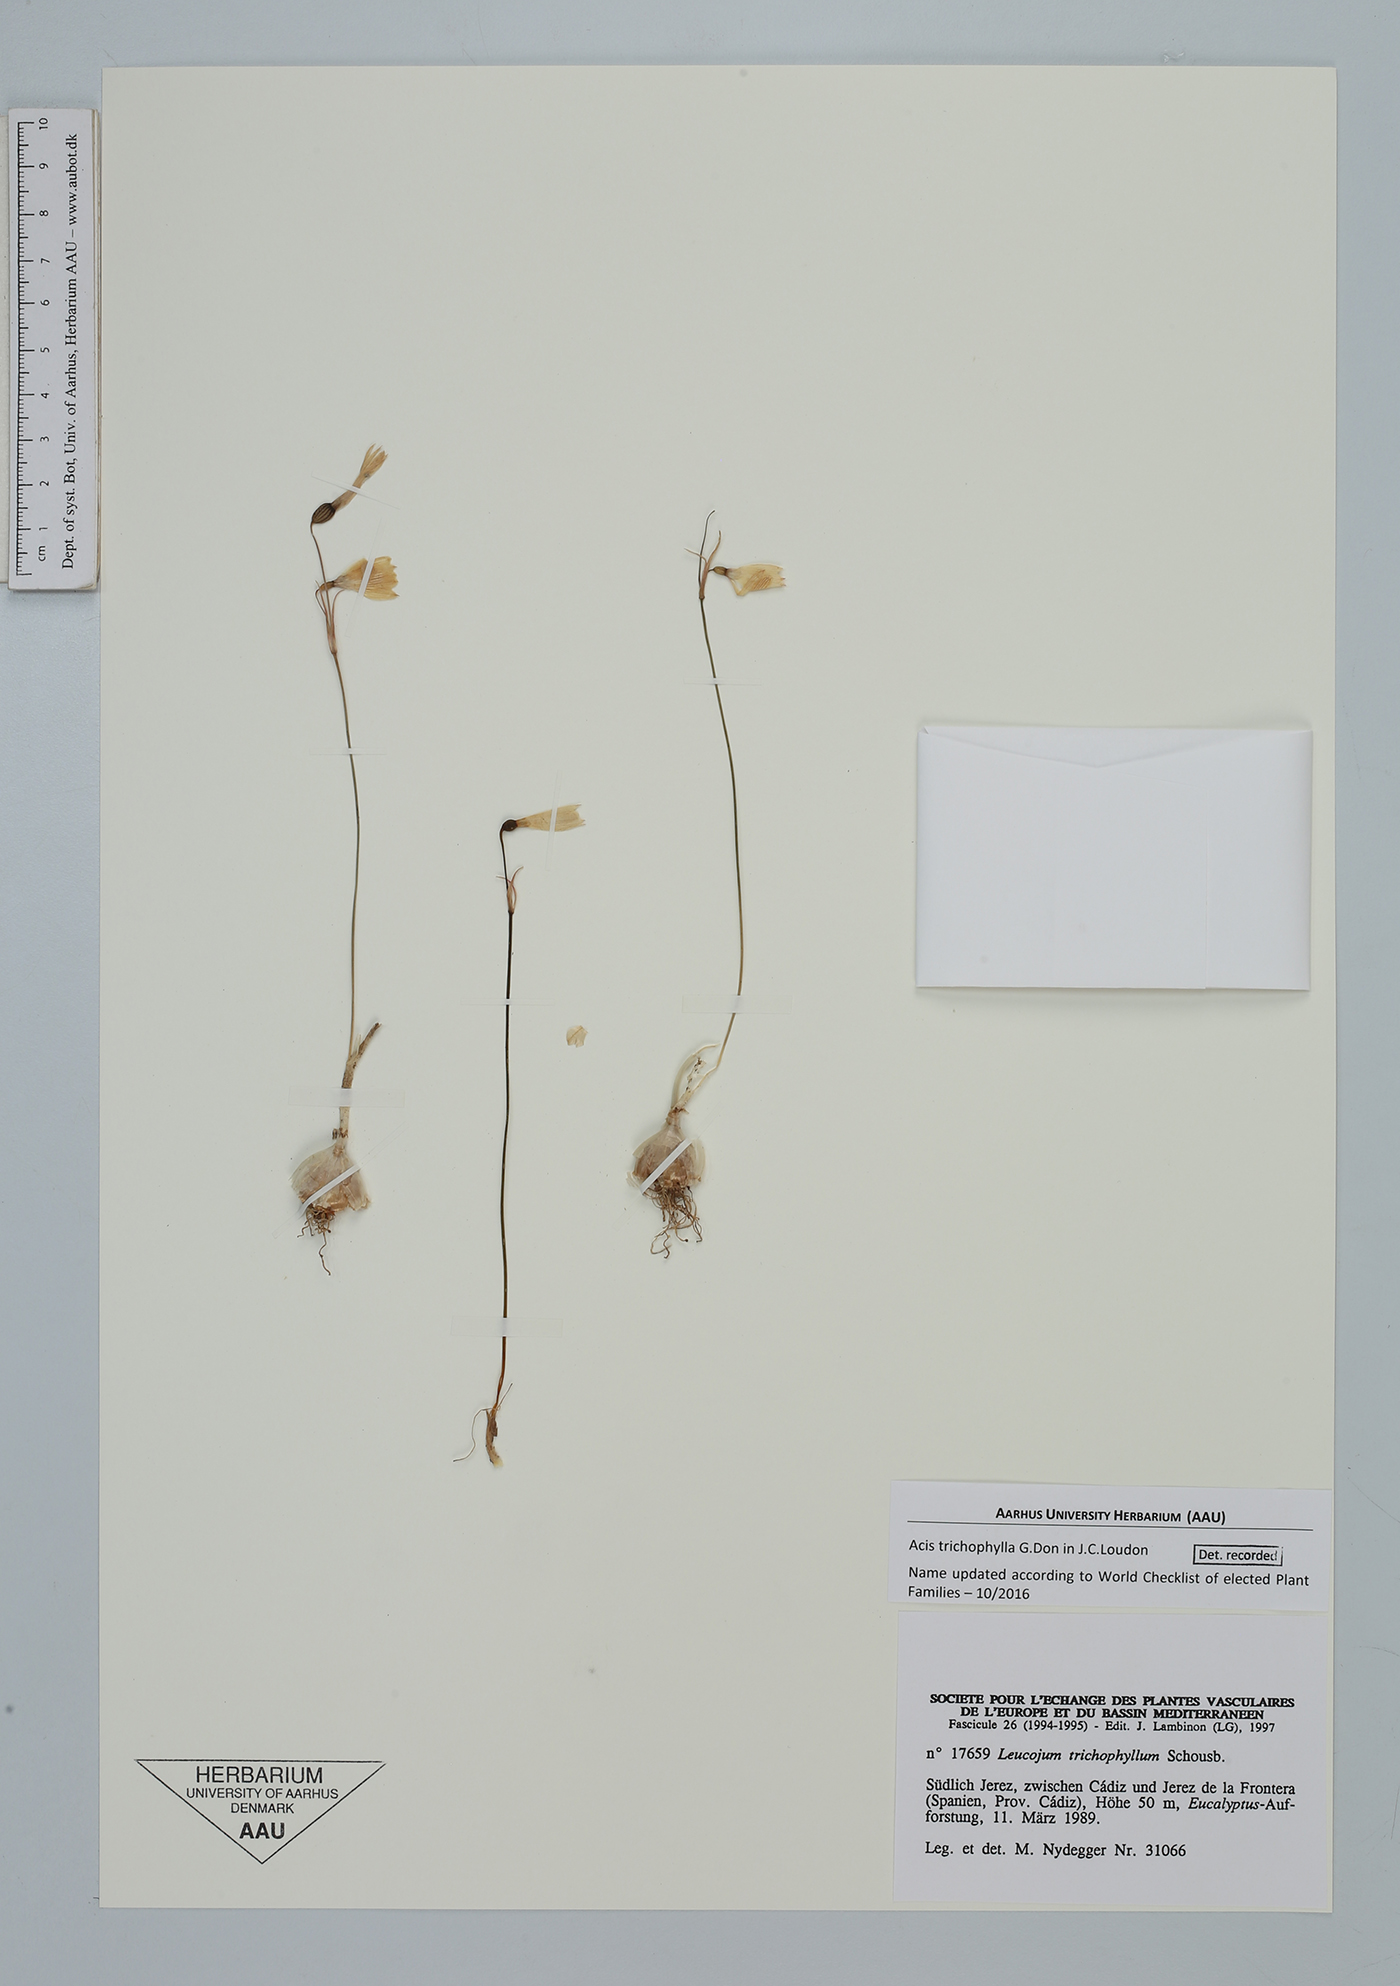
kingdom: Plantae
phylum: Tracheophyta
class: Liliopsida
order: Asparagales
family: Amaryllidaceae
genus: Acis
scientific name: Acis trichophylla
